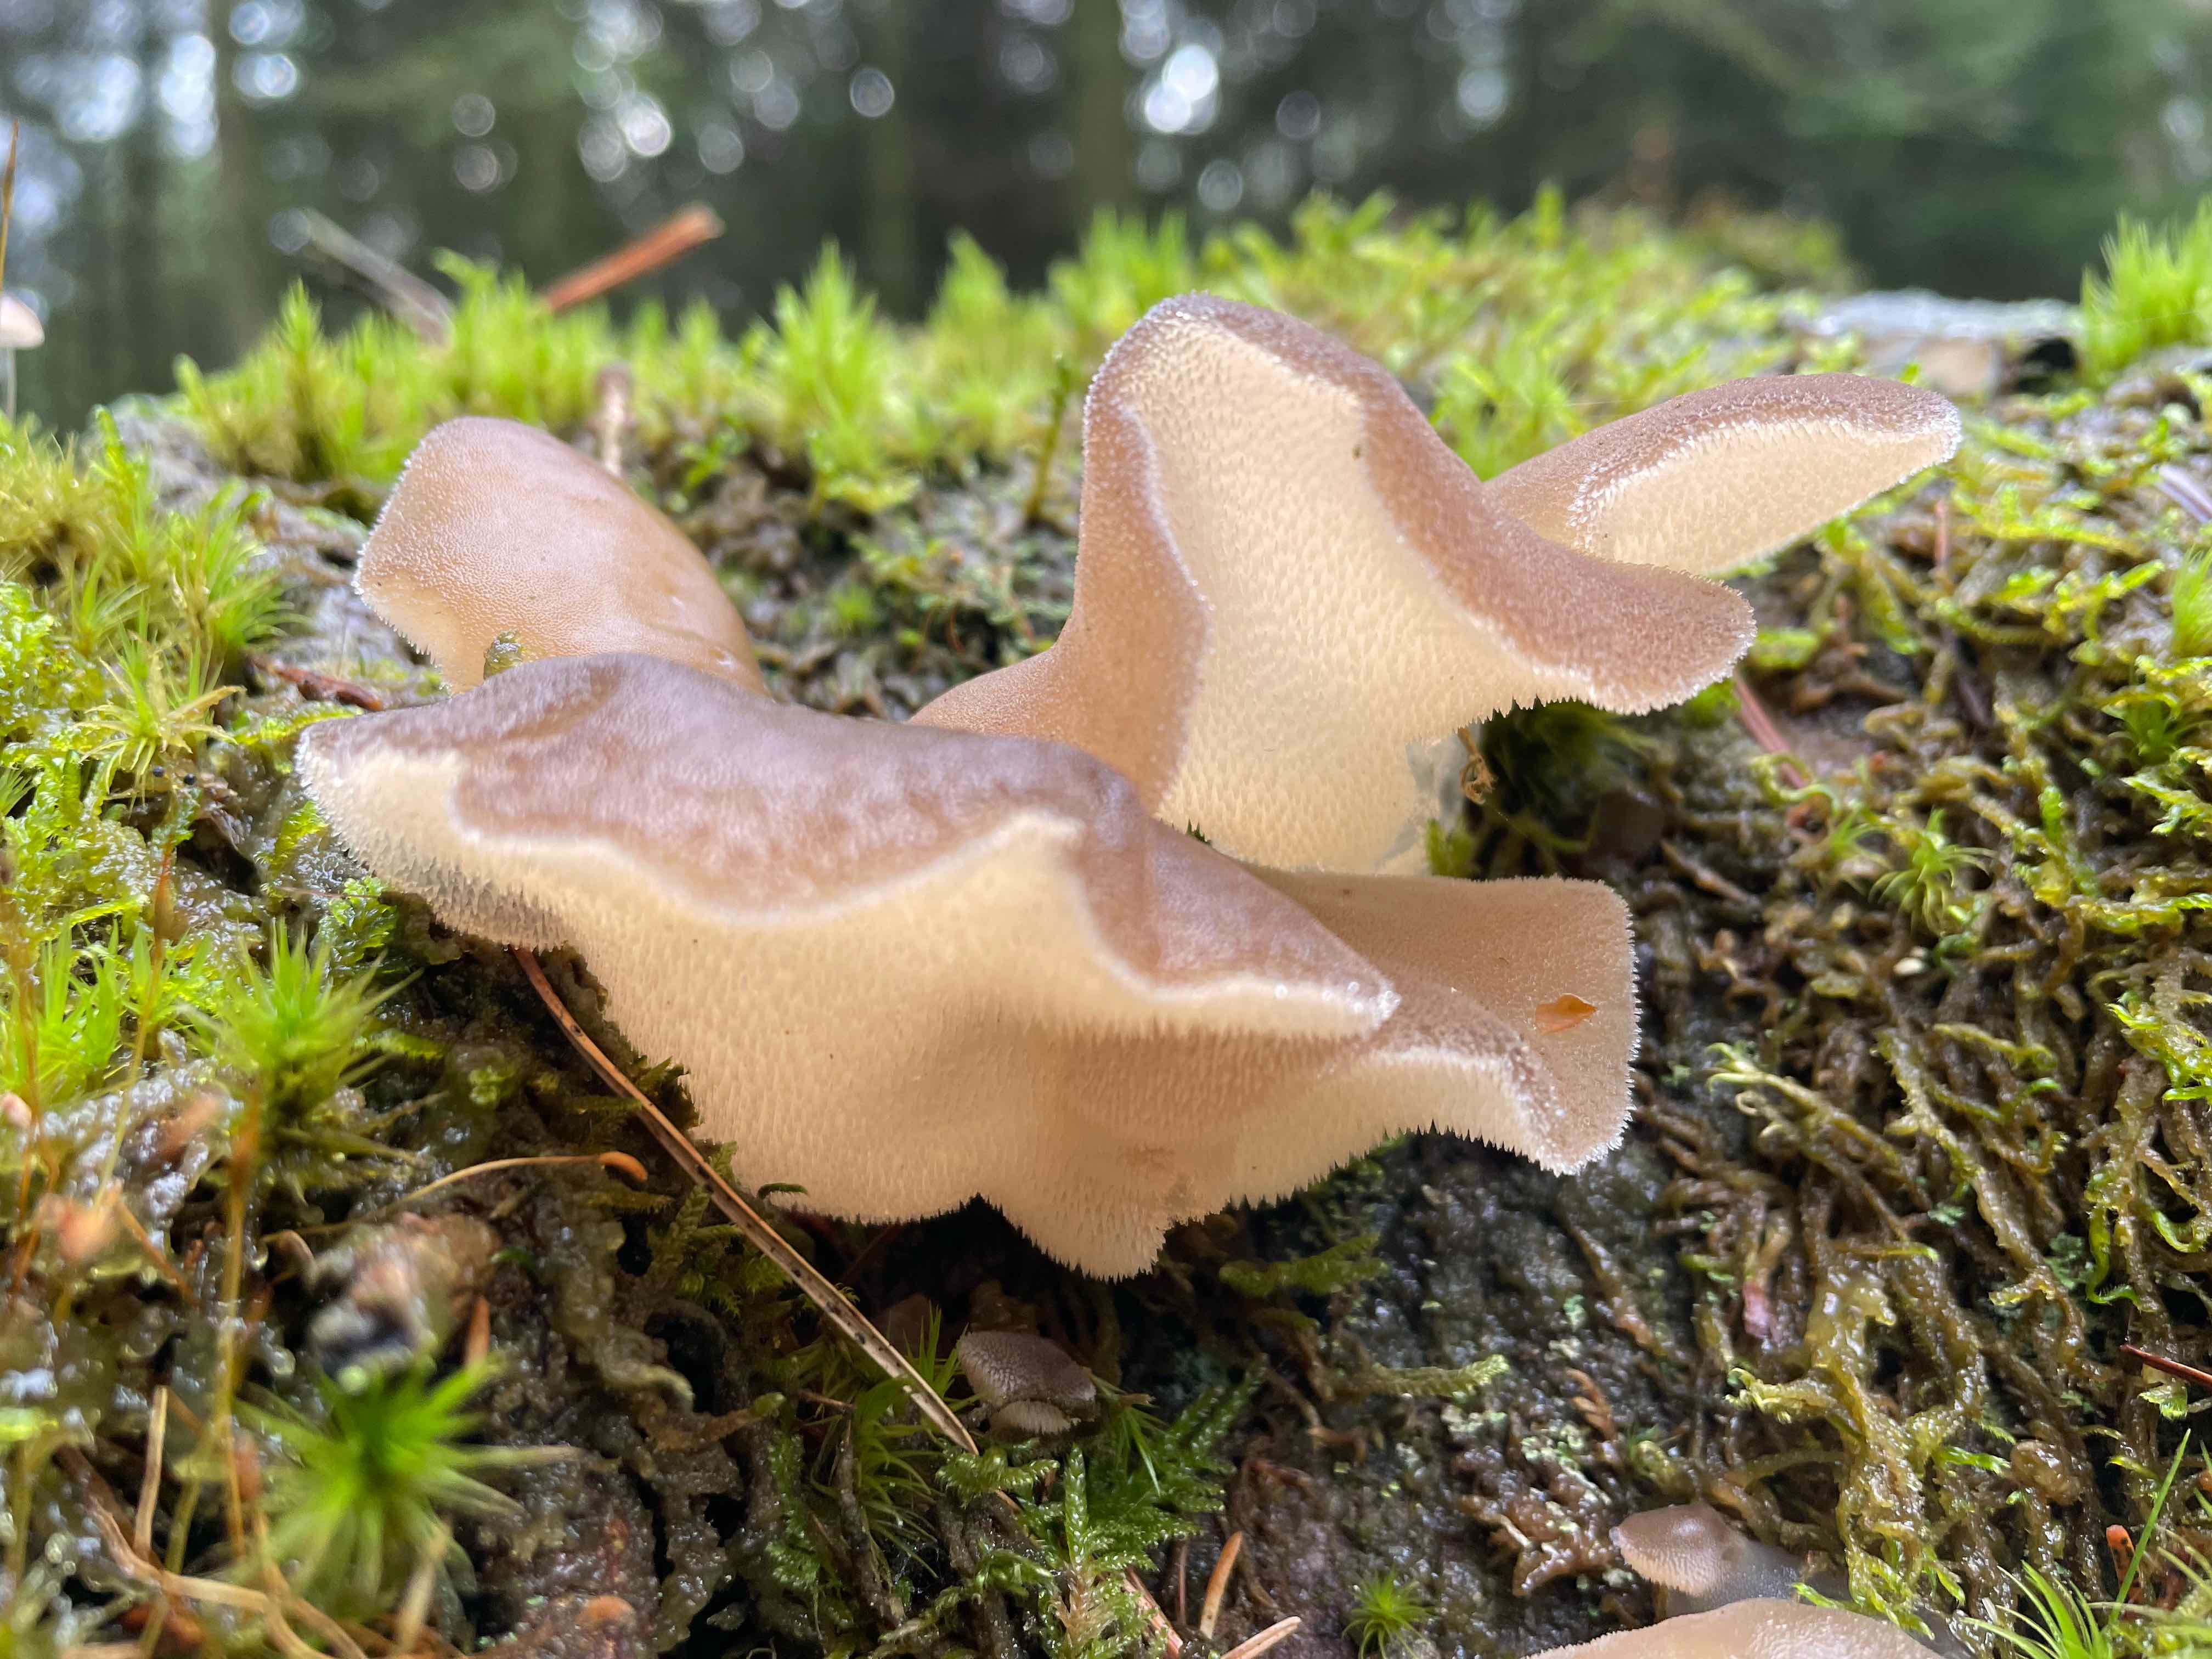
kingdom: Fungi
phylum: Basidiomycota
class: Agaricomycetes
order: Auriculariales
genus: Pseudohydnum
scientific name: Pseudohydnum gelatinosum
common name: bævretand
